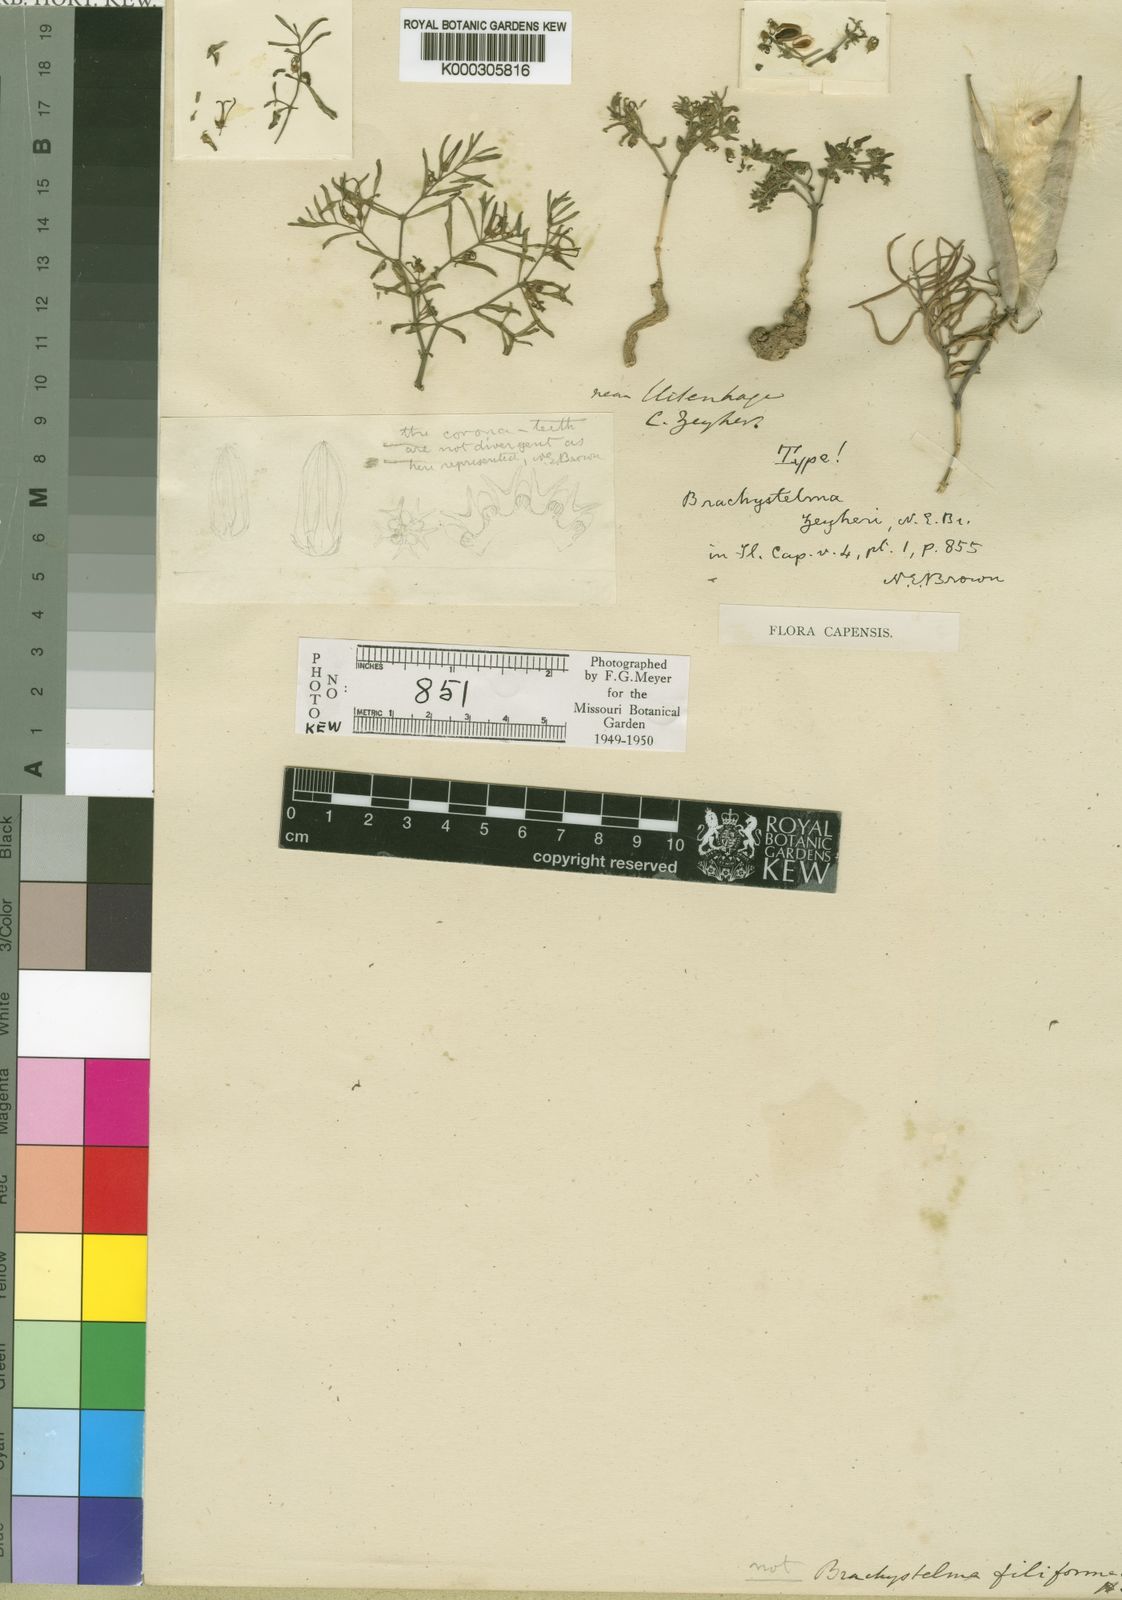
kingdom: Plantae
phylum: Tracheophyta
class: Magnoliopsida
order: Gentianales
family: Apocynaceae
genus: Ceropegia
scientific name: Ceropegia circinata
